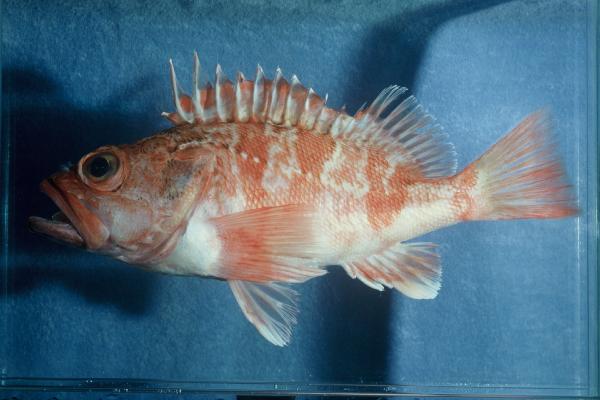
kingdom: Animalia
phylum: Chordata
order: Scorpaeniformes
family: Sebastidae
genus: Helicolenus
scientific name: Helicolenus dactylopterus
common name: Blackbelly rosefish
